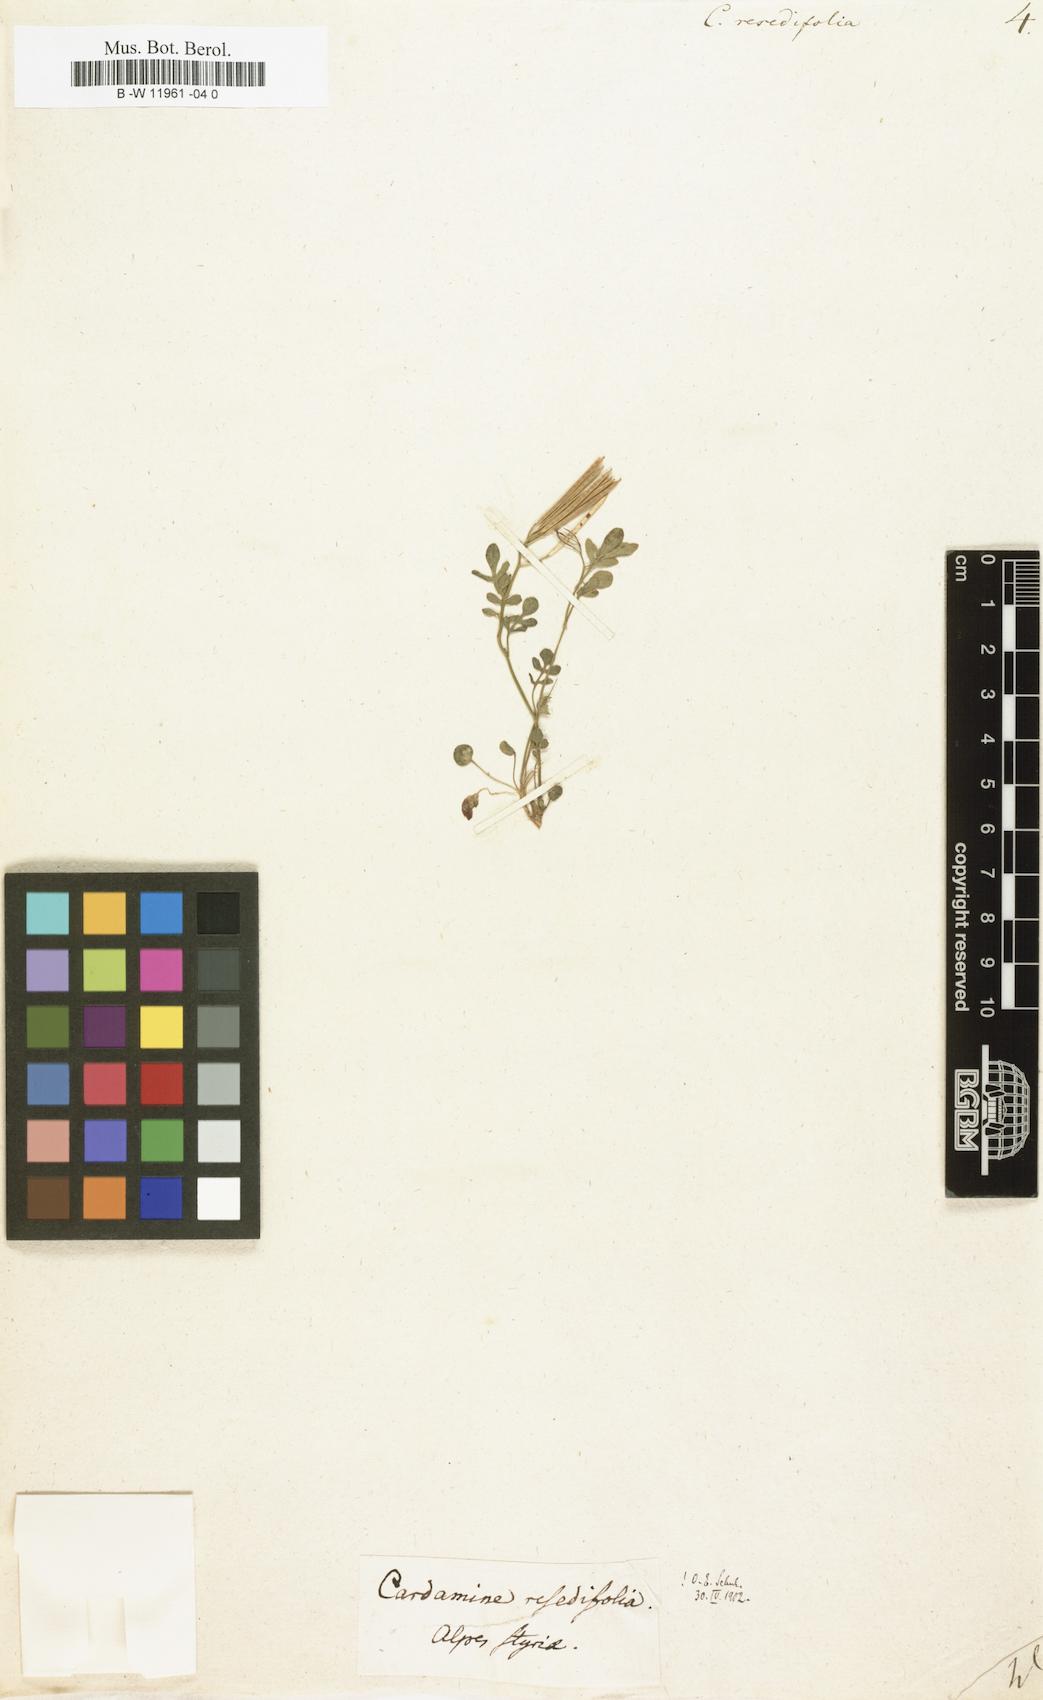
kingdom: Plantae
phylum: Tracheophyta
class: Magnoliopsida
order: Brassicales
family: Brassicaceae
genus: Cardamine
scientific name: Cardamine resedifolia
